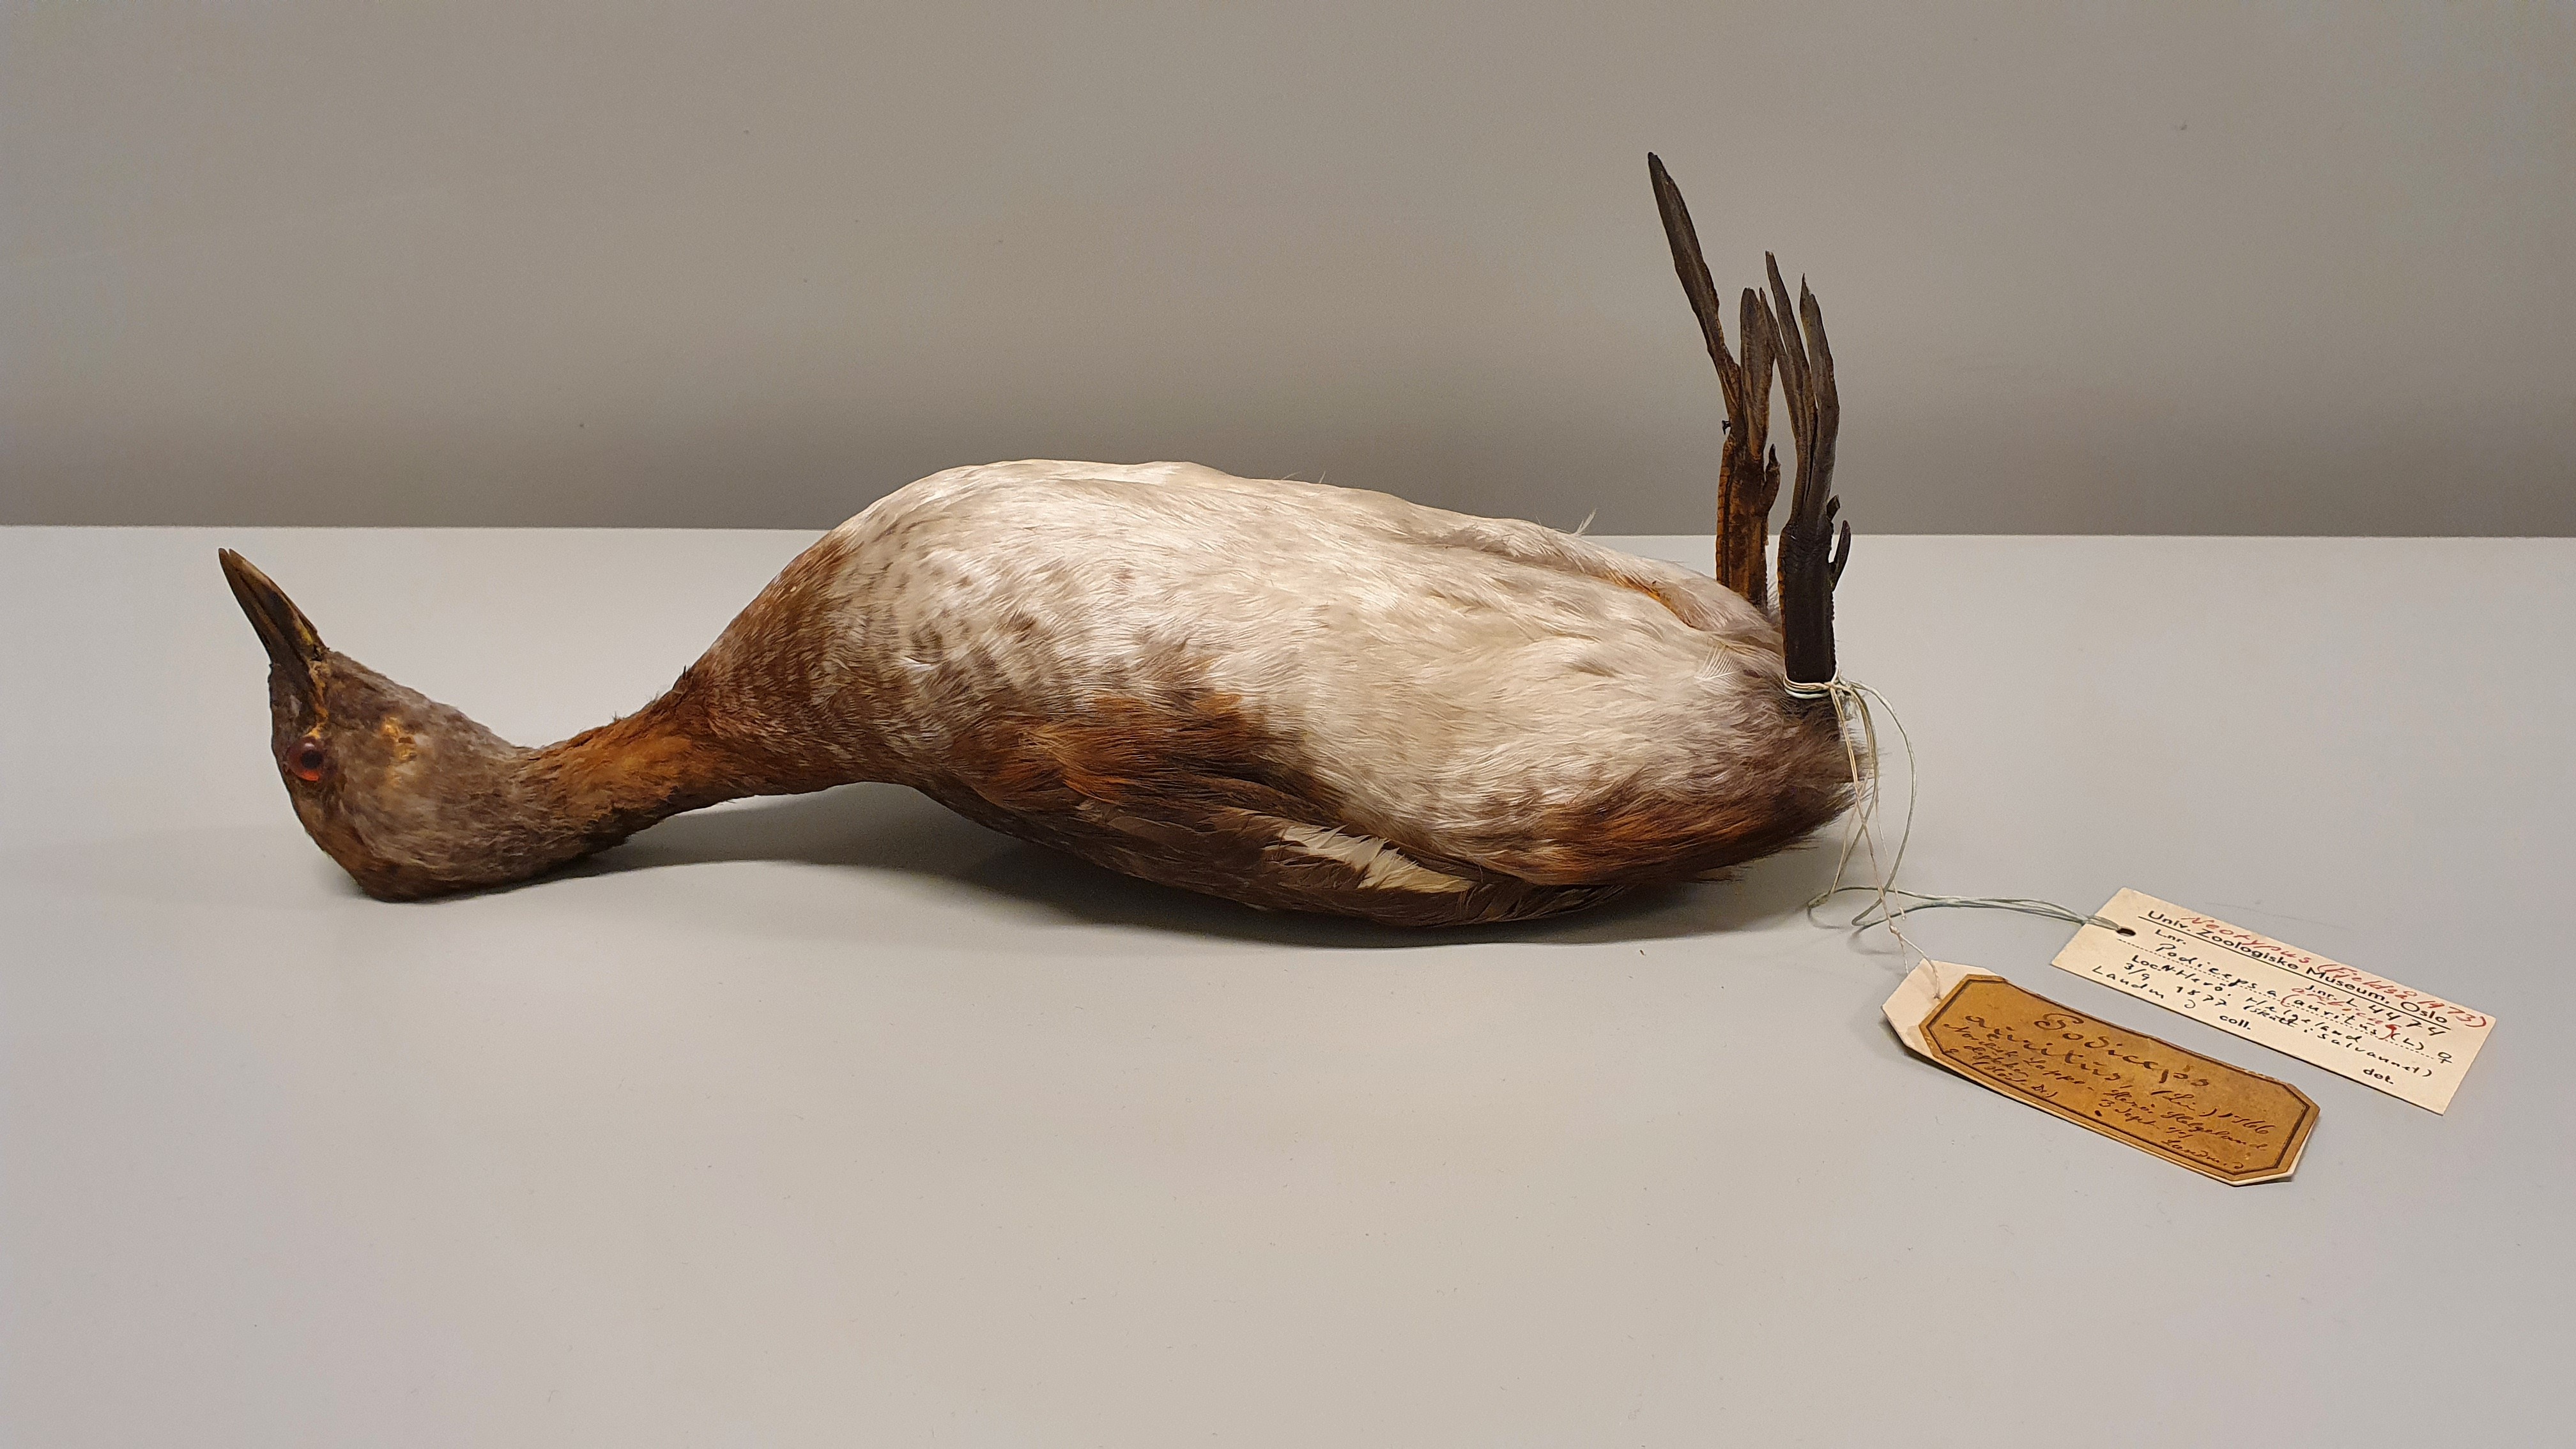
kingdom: Animalia
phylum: Chordata
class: Aves
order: Podicipediformes
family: Podicipedidae
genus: Podiceps
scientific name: Podiceps auritus
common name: Horned grebe
